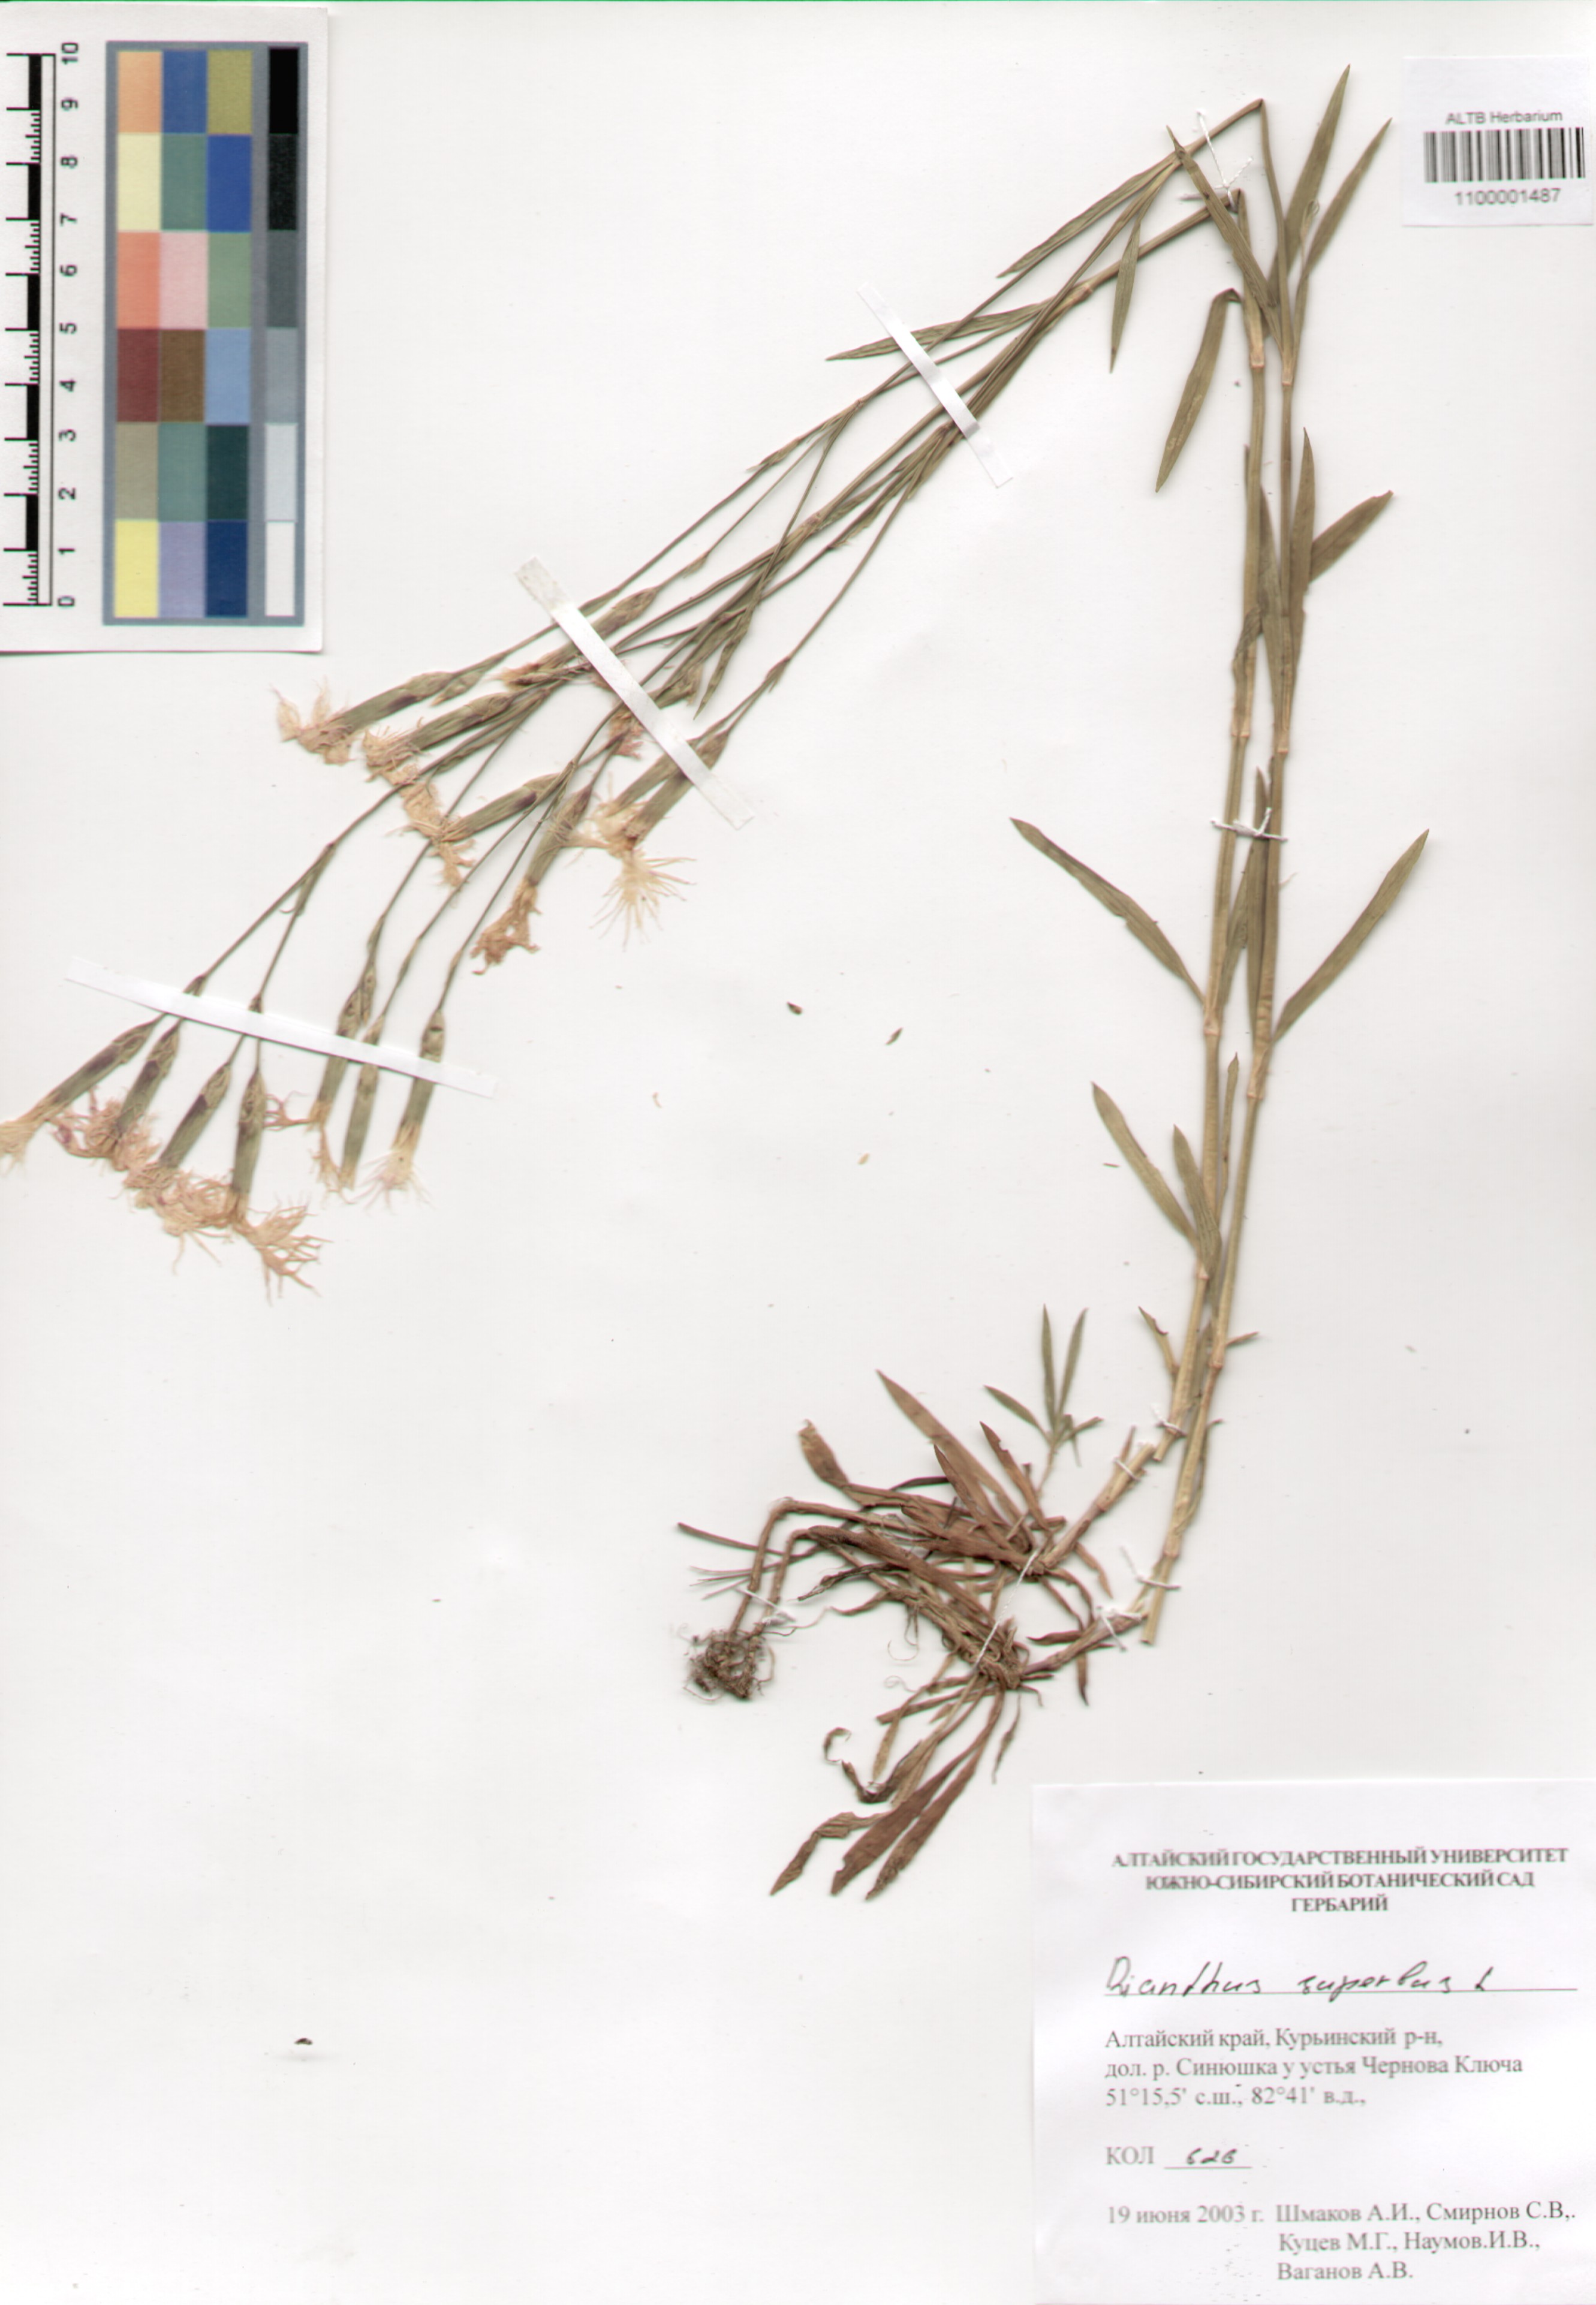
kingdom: Plantae
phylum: Tracheophyta
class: Magnoliopsida
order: Caryophyllales
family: Caryophyllaceae
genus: Dianthus
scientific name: Dianthus superbus
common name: Fringed pink
